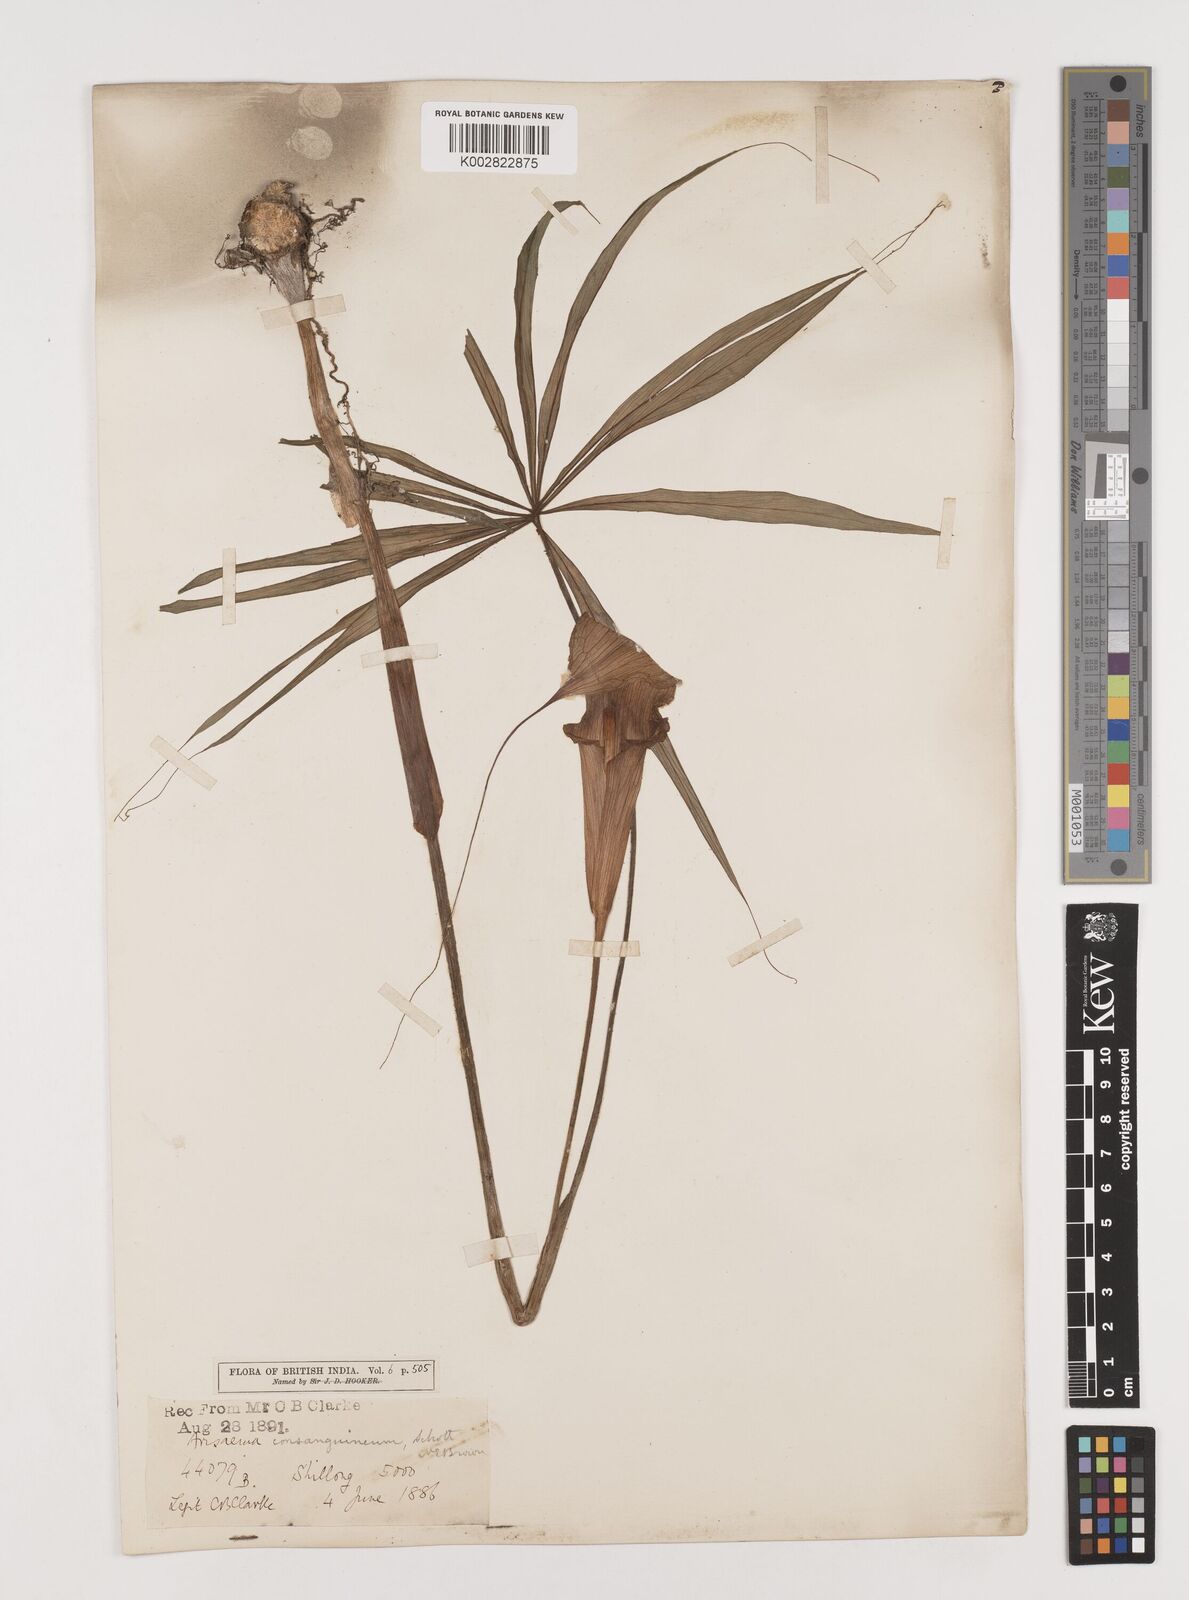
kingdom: Plantae
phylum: Tracheophyta
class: Liliopsida
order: Alismatales
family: Araceae
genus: Arisaema
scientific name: Arisaema erubescens
